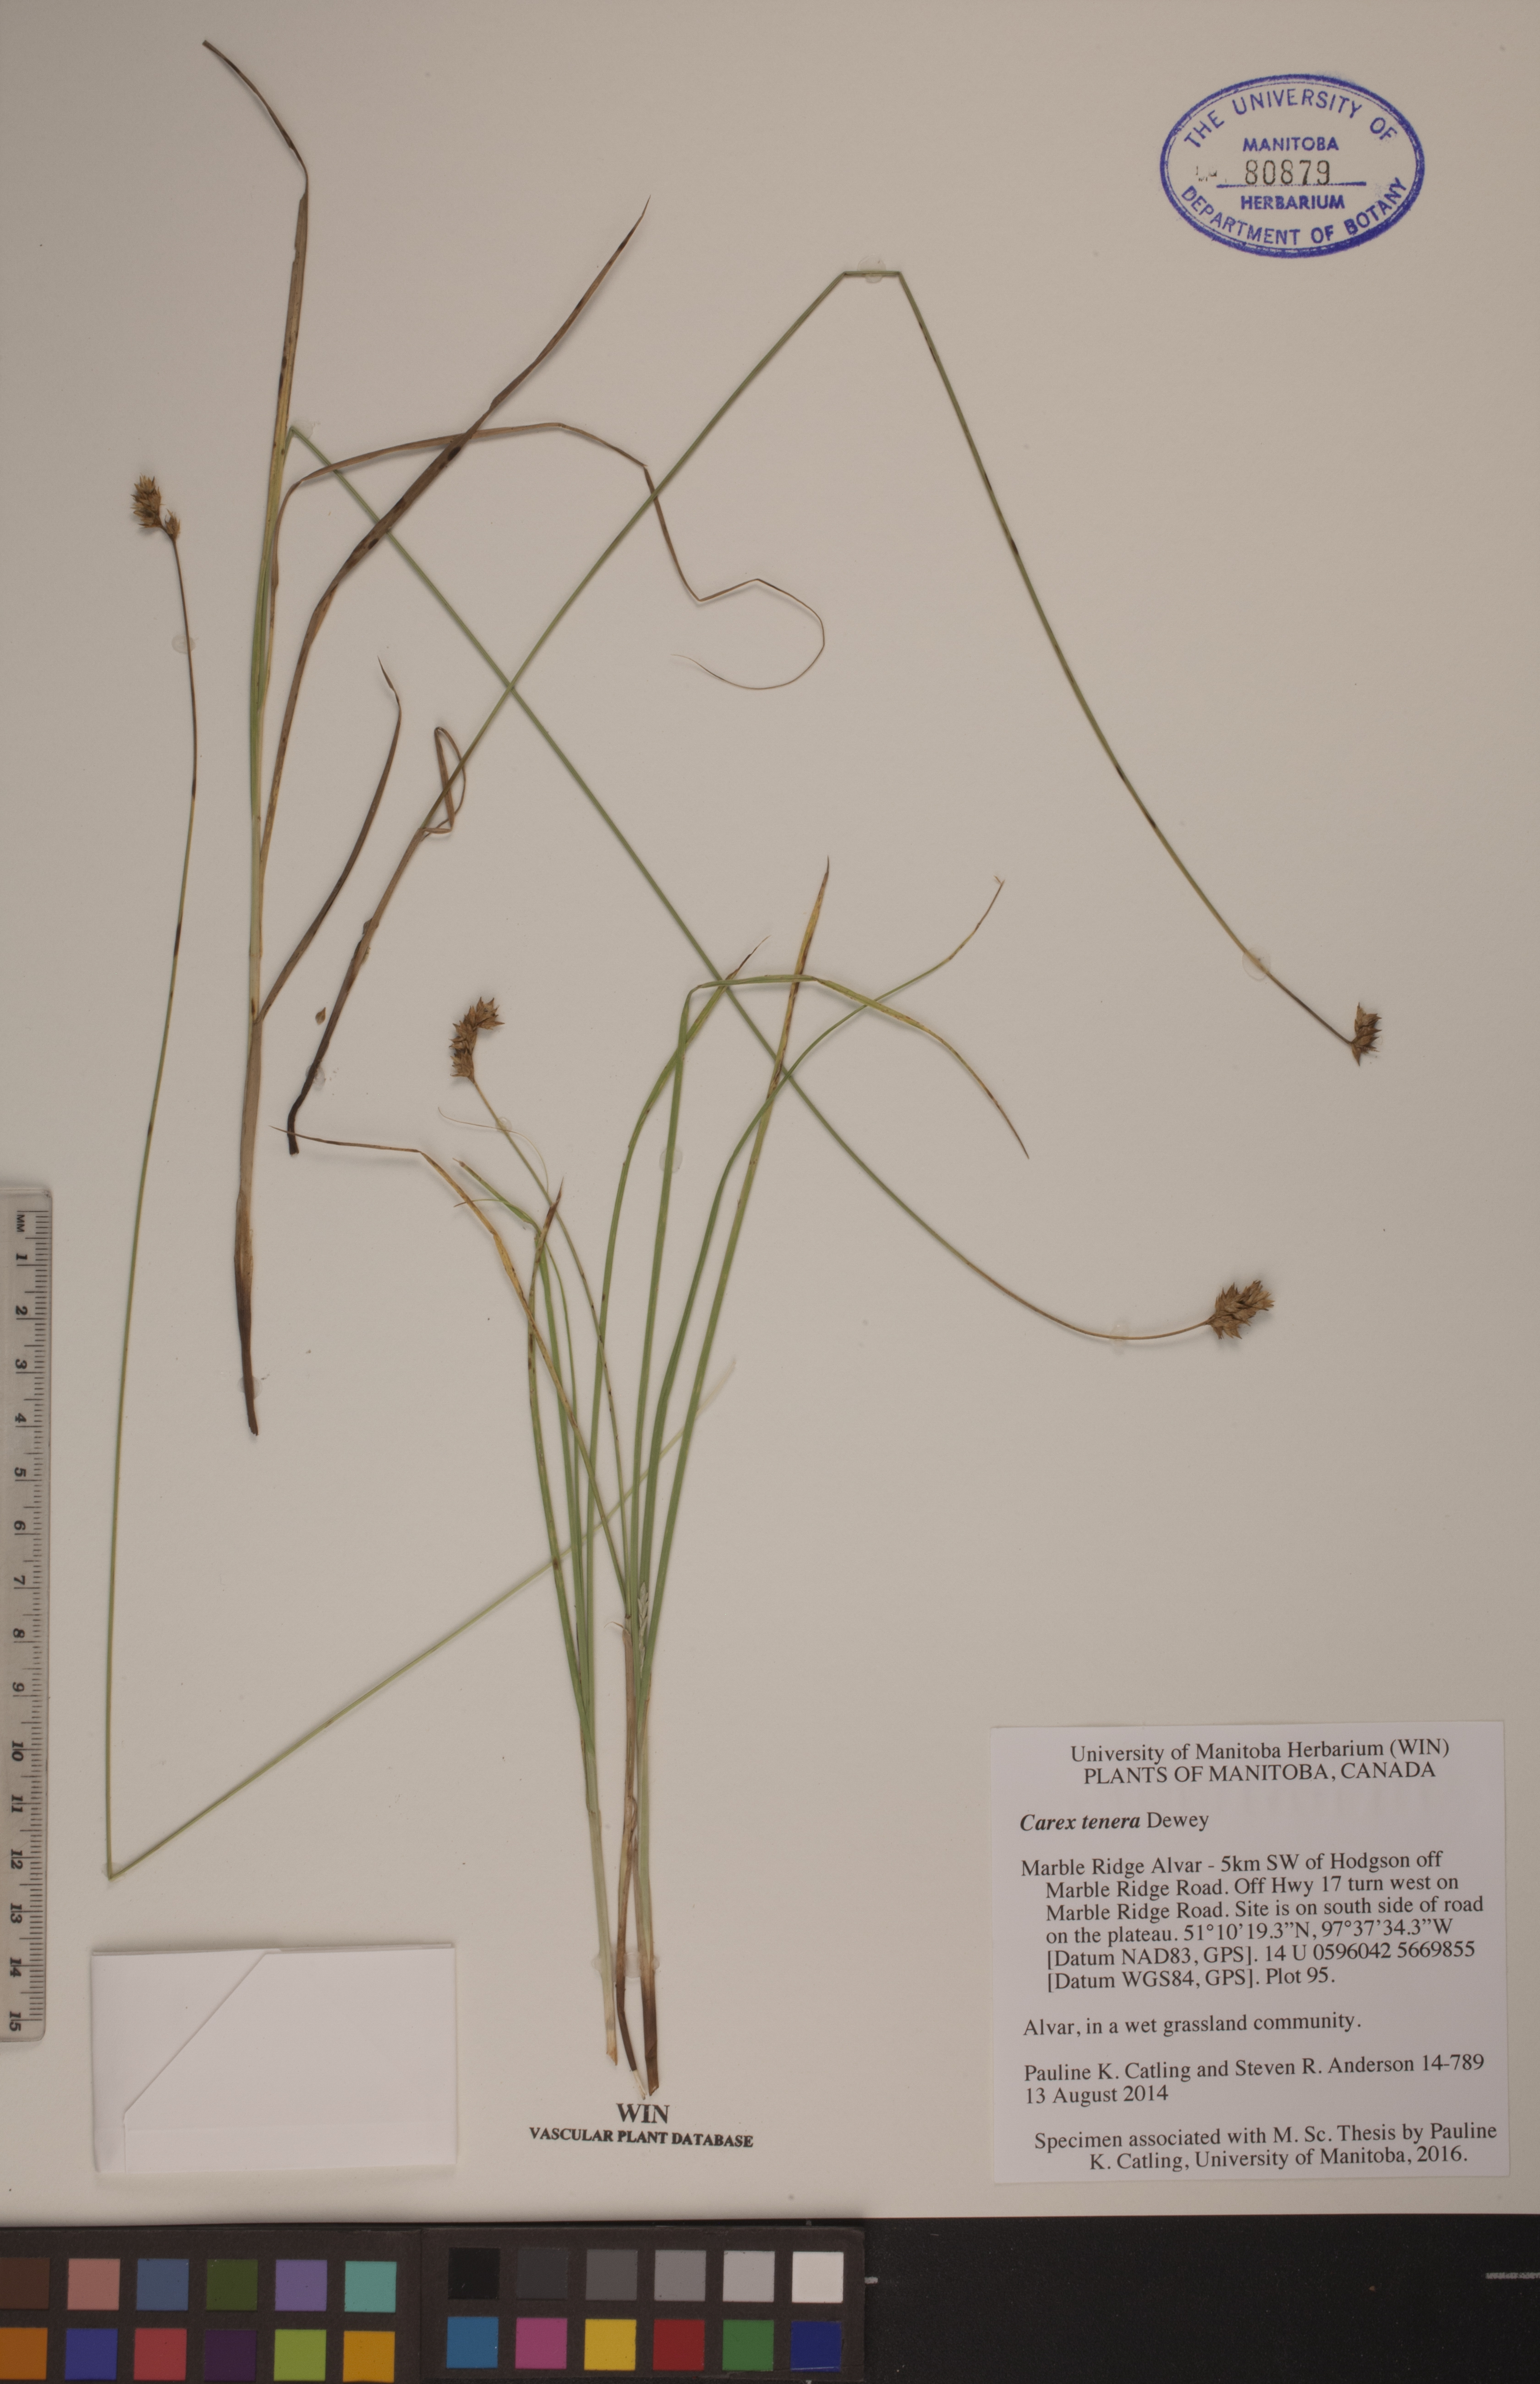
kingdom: Plantae
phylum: Tracheophyta
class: Liliopsida
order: Poales
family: Cyperaceae
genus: Carex
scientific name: Carex tenera
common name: Broad-fruited sedge
